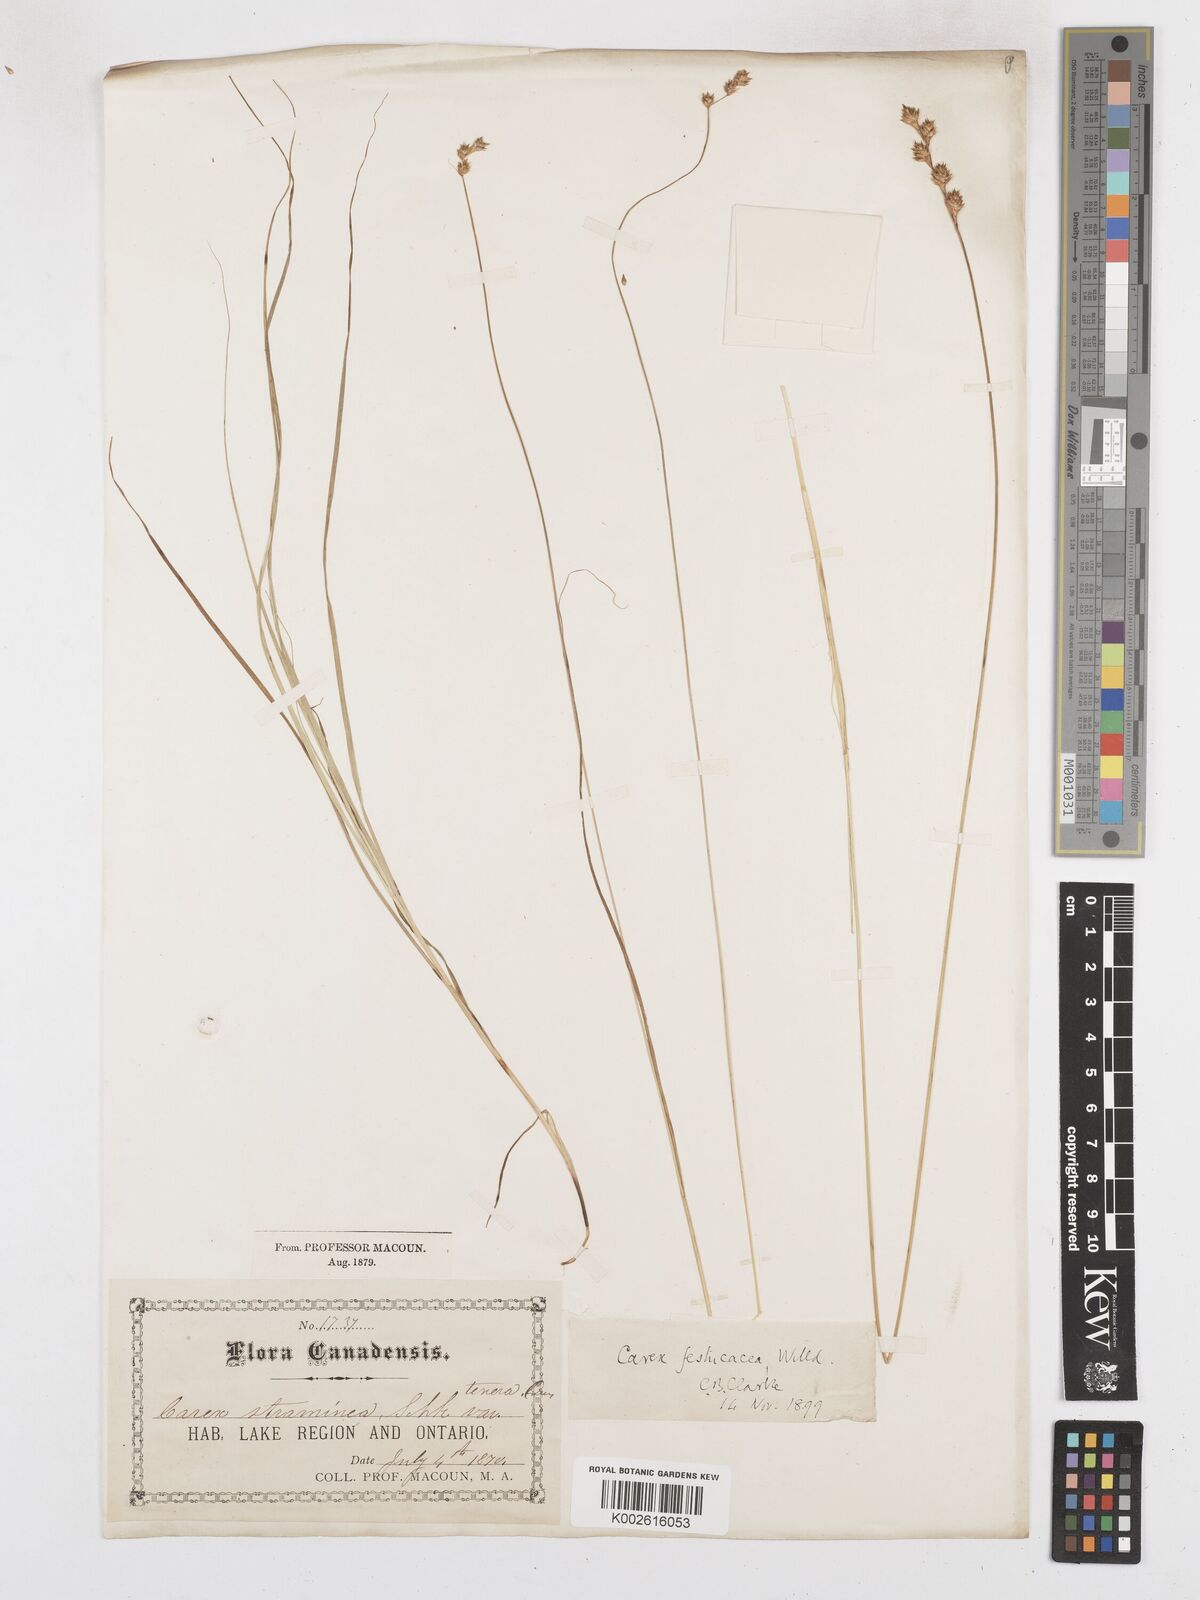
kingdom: Plantae
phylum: Tracheophyta
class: Liliopsida
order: Poales
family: Cyperaceae
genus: Carex
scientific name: Carex festucacea
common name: Fescue oval sedge
